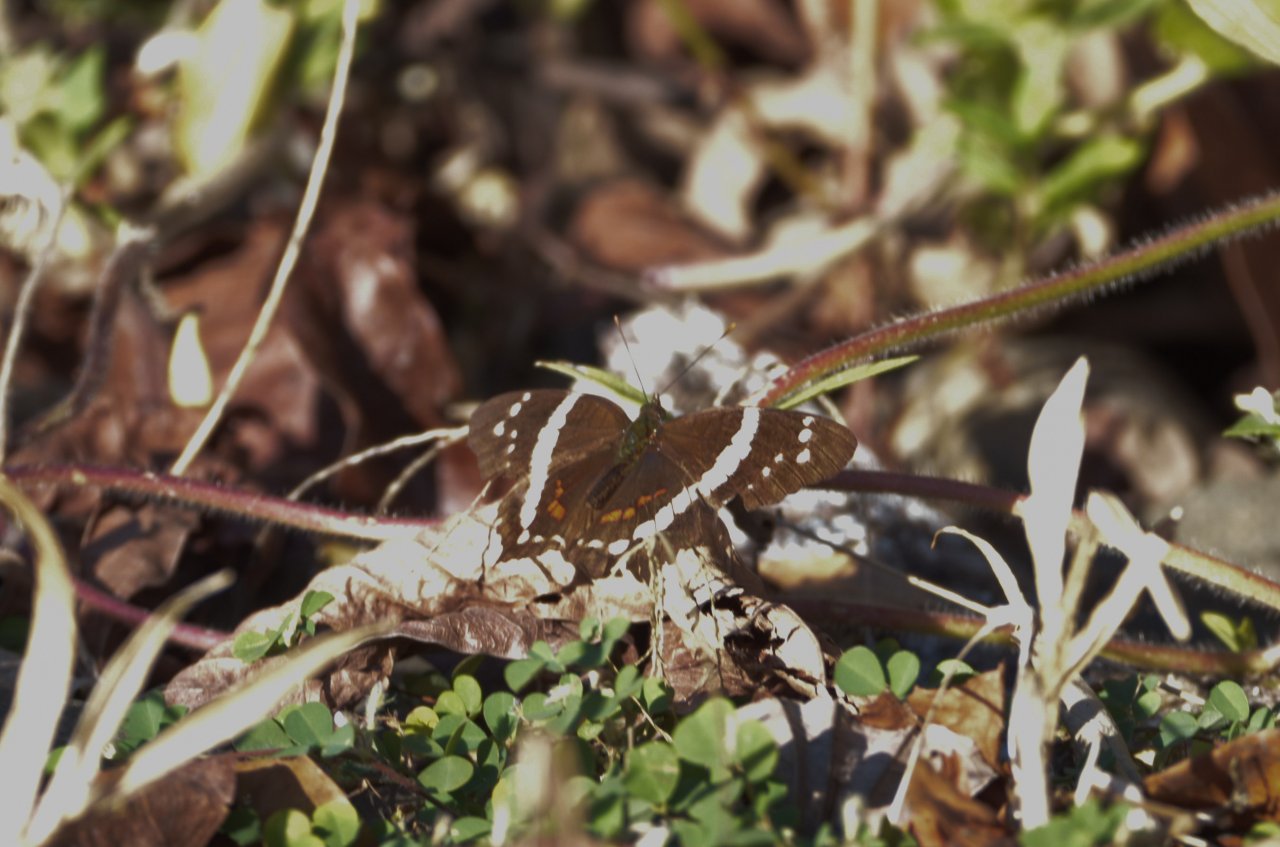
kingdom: Animalia
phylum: Arthropoda
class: Insecta
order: Lepidoptera
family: Nymphalidae
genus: Anartia
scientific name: Anartia fatima
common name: Banded Peacock
